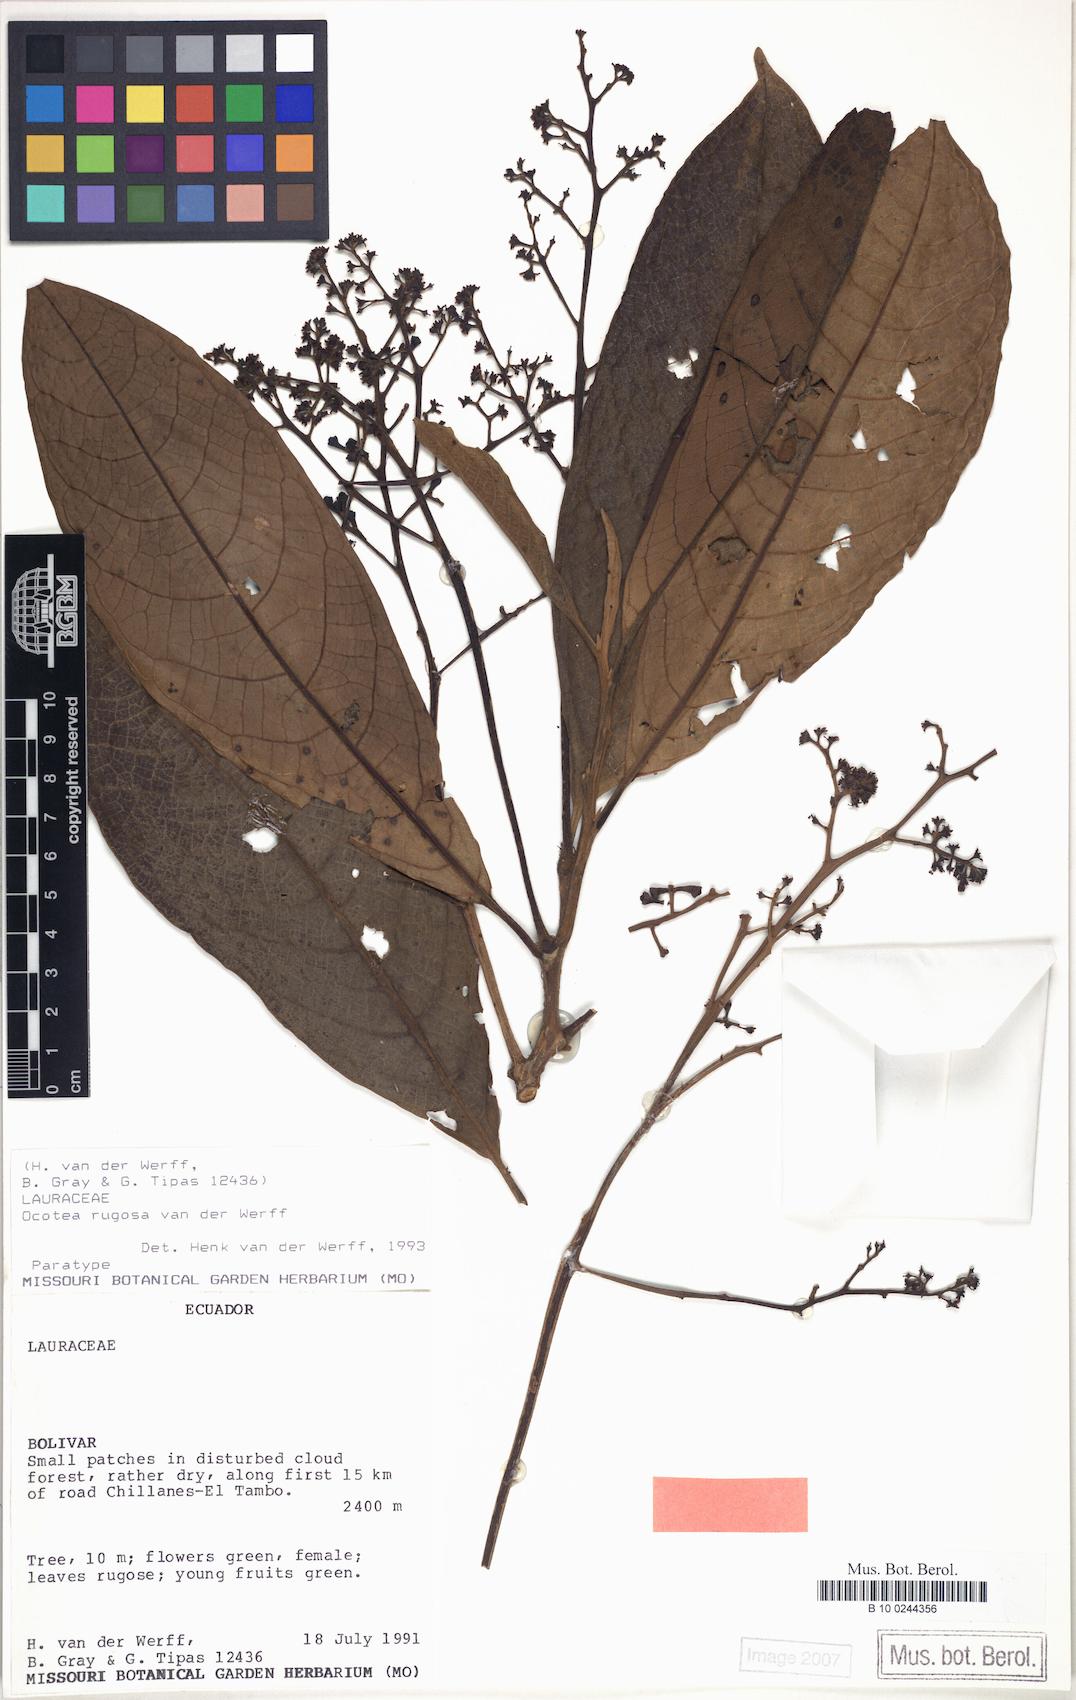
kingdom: Plantae
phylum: Tracheophyta
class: Magnoliopsida
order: Laurales
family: Lauraceae
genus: Ocotea
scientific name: Ocotea rugosa
